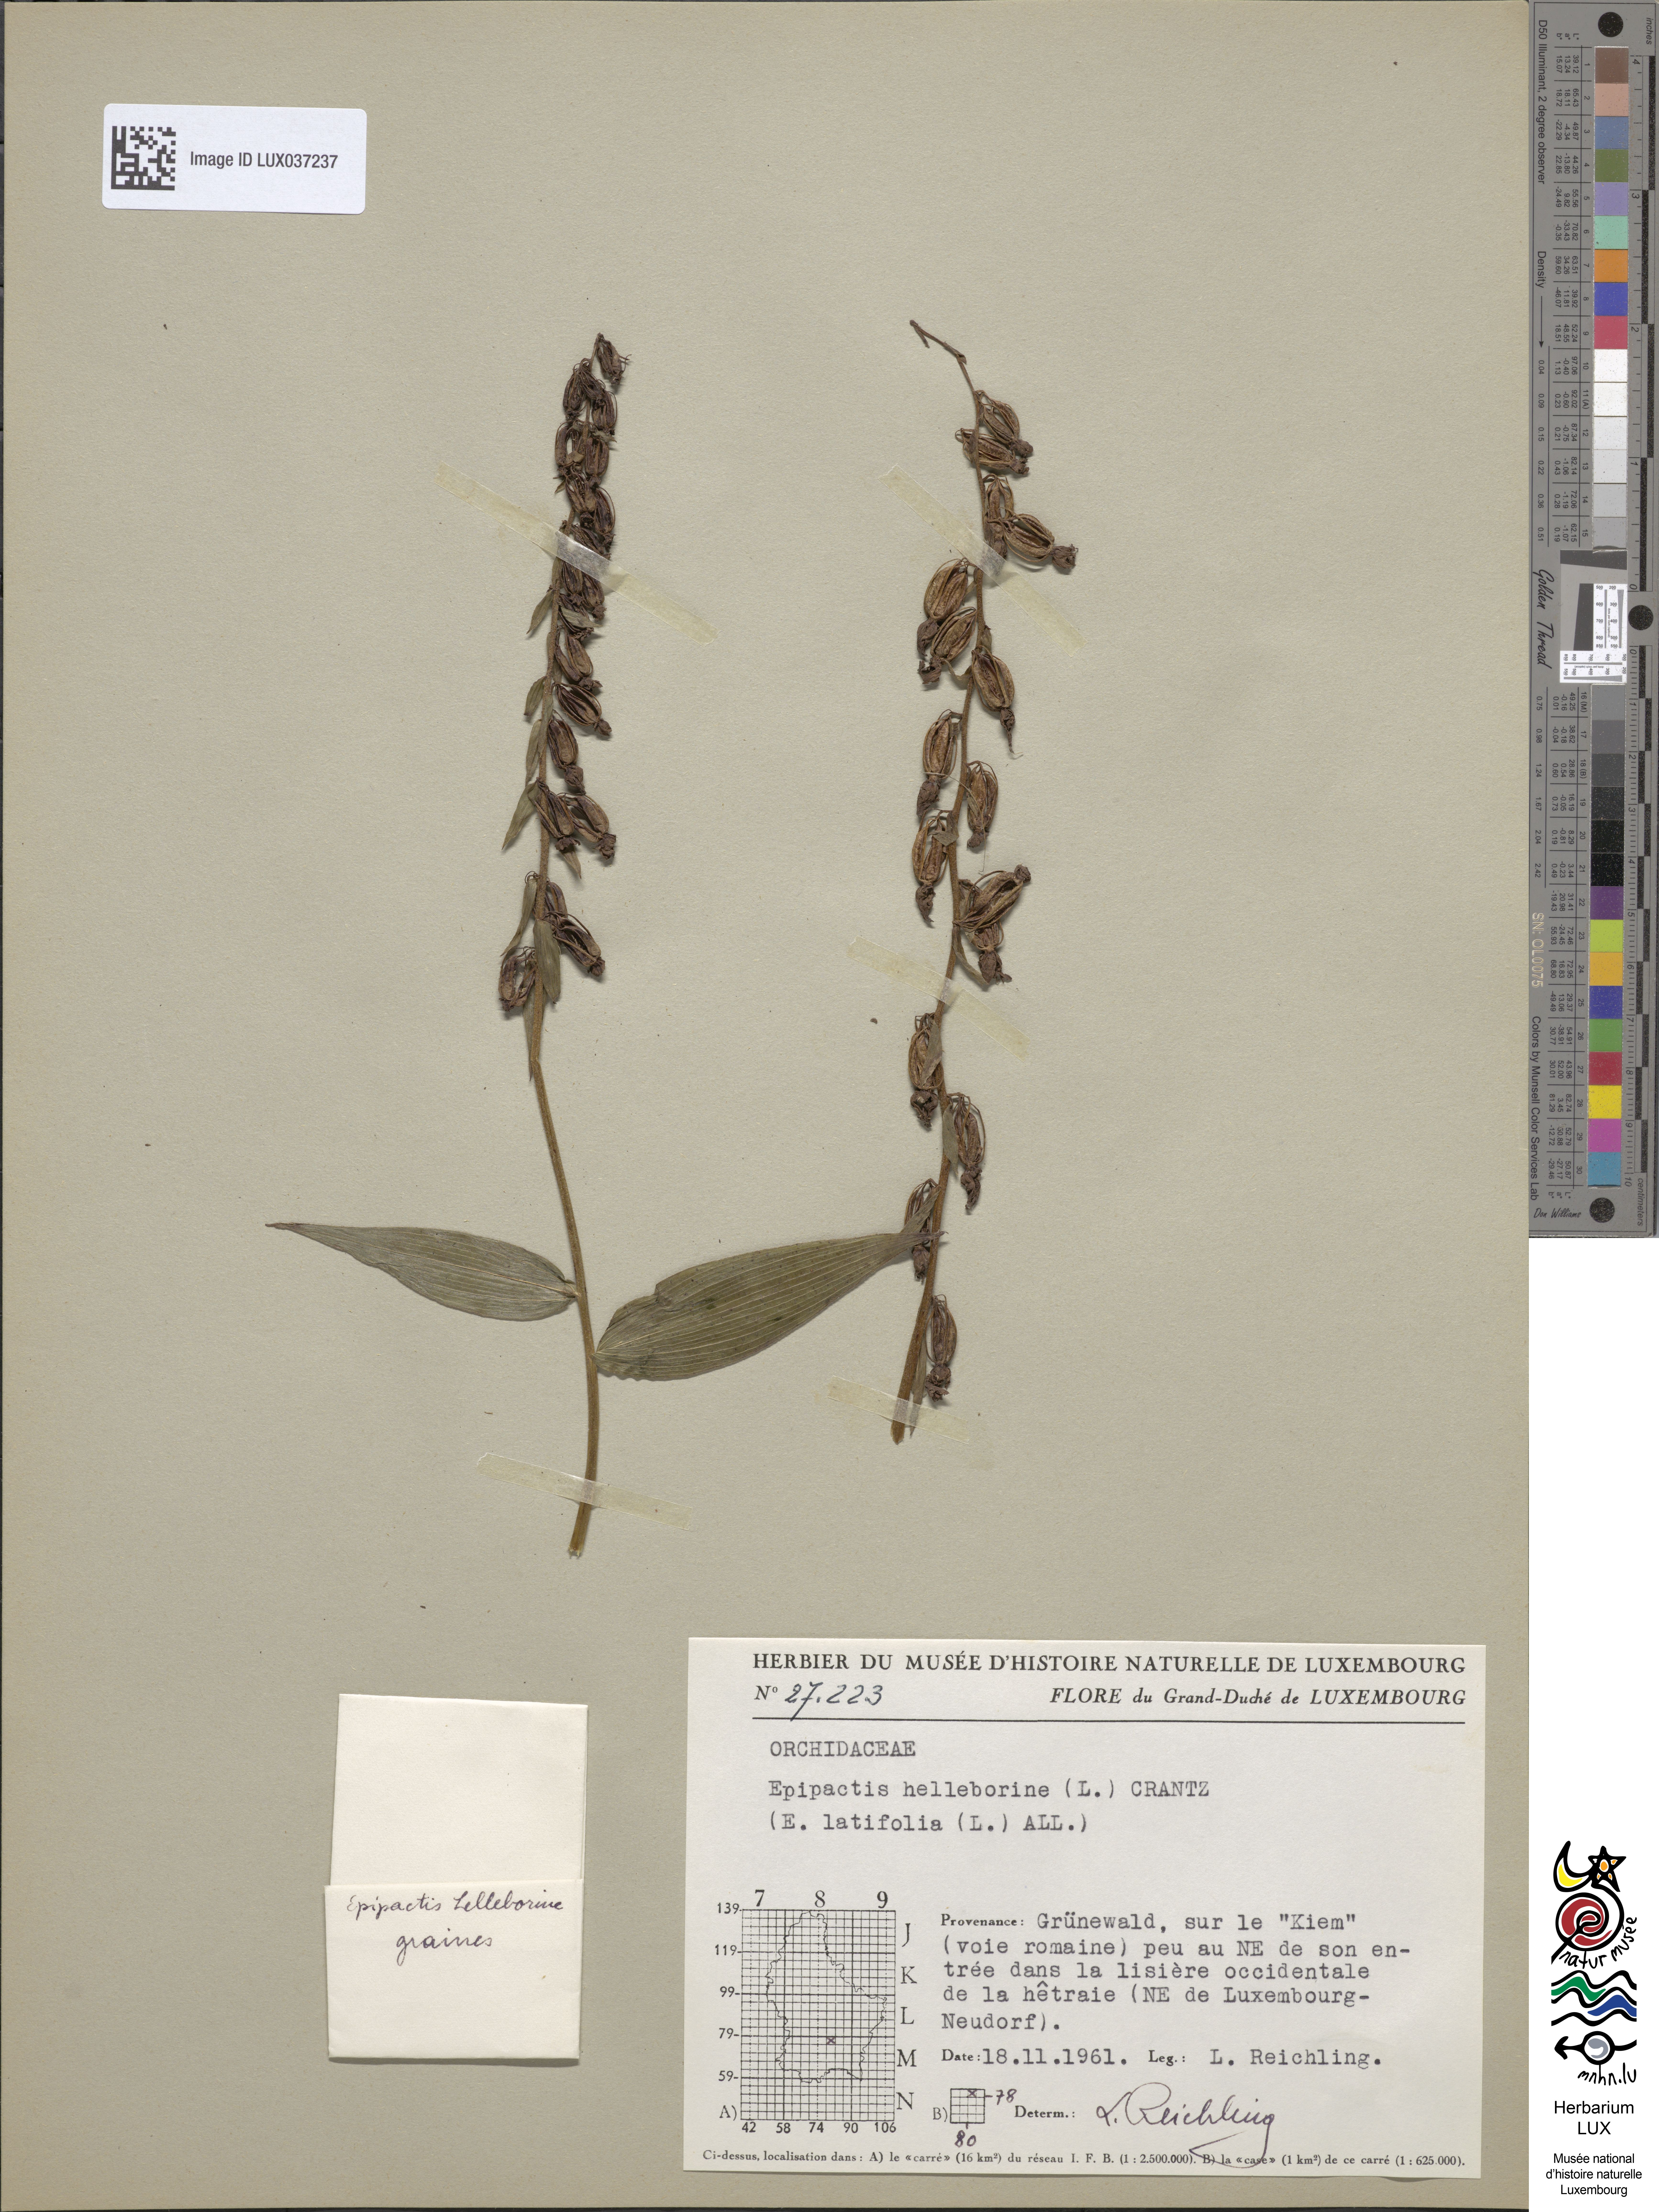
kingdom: Plantae
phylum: Tracheophyta
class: Liliopsida
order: Asparagales
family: Orchidaceae
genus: Epipactis
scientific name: Epipactis helleborine
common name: Broad-leaved helleborine
